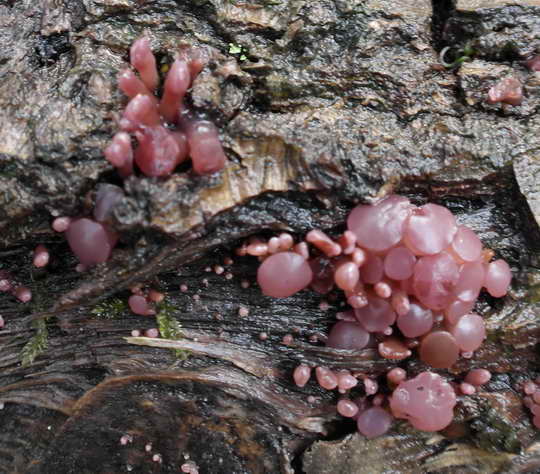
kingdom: Fungi
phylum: Ascomycota
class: Leotiomycetes
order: Helotiales
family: Gelatinodiscaceae
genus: Ascocoryne
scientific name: Ascocoryne sarcoides
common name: rødlilla sejskive
